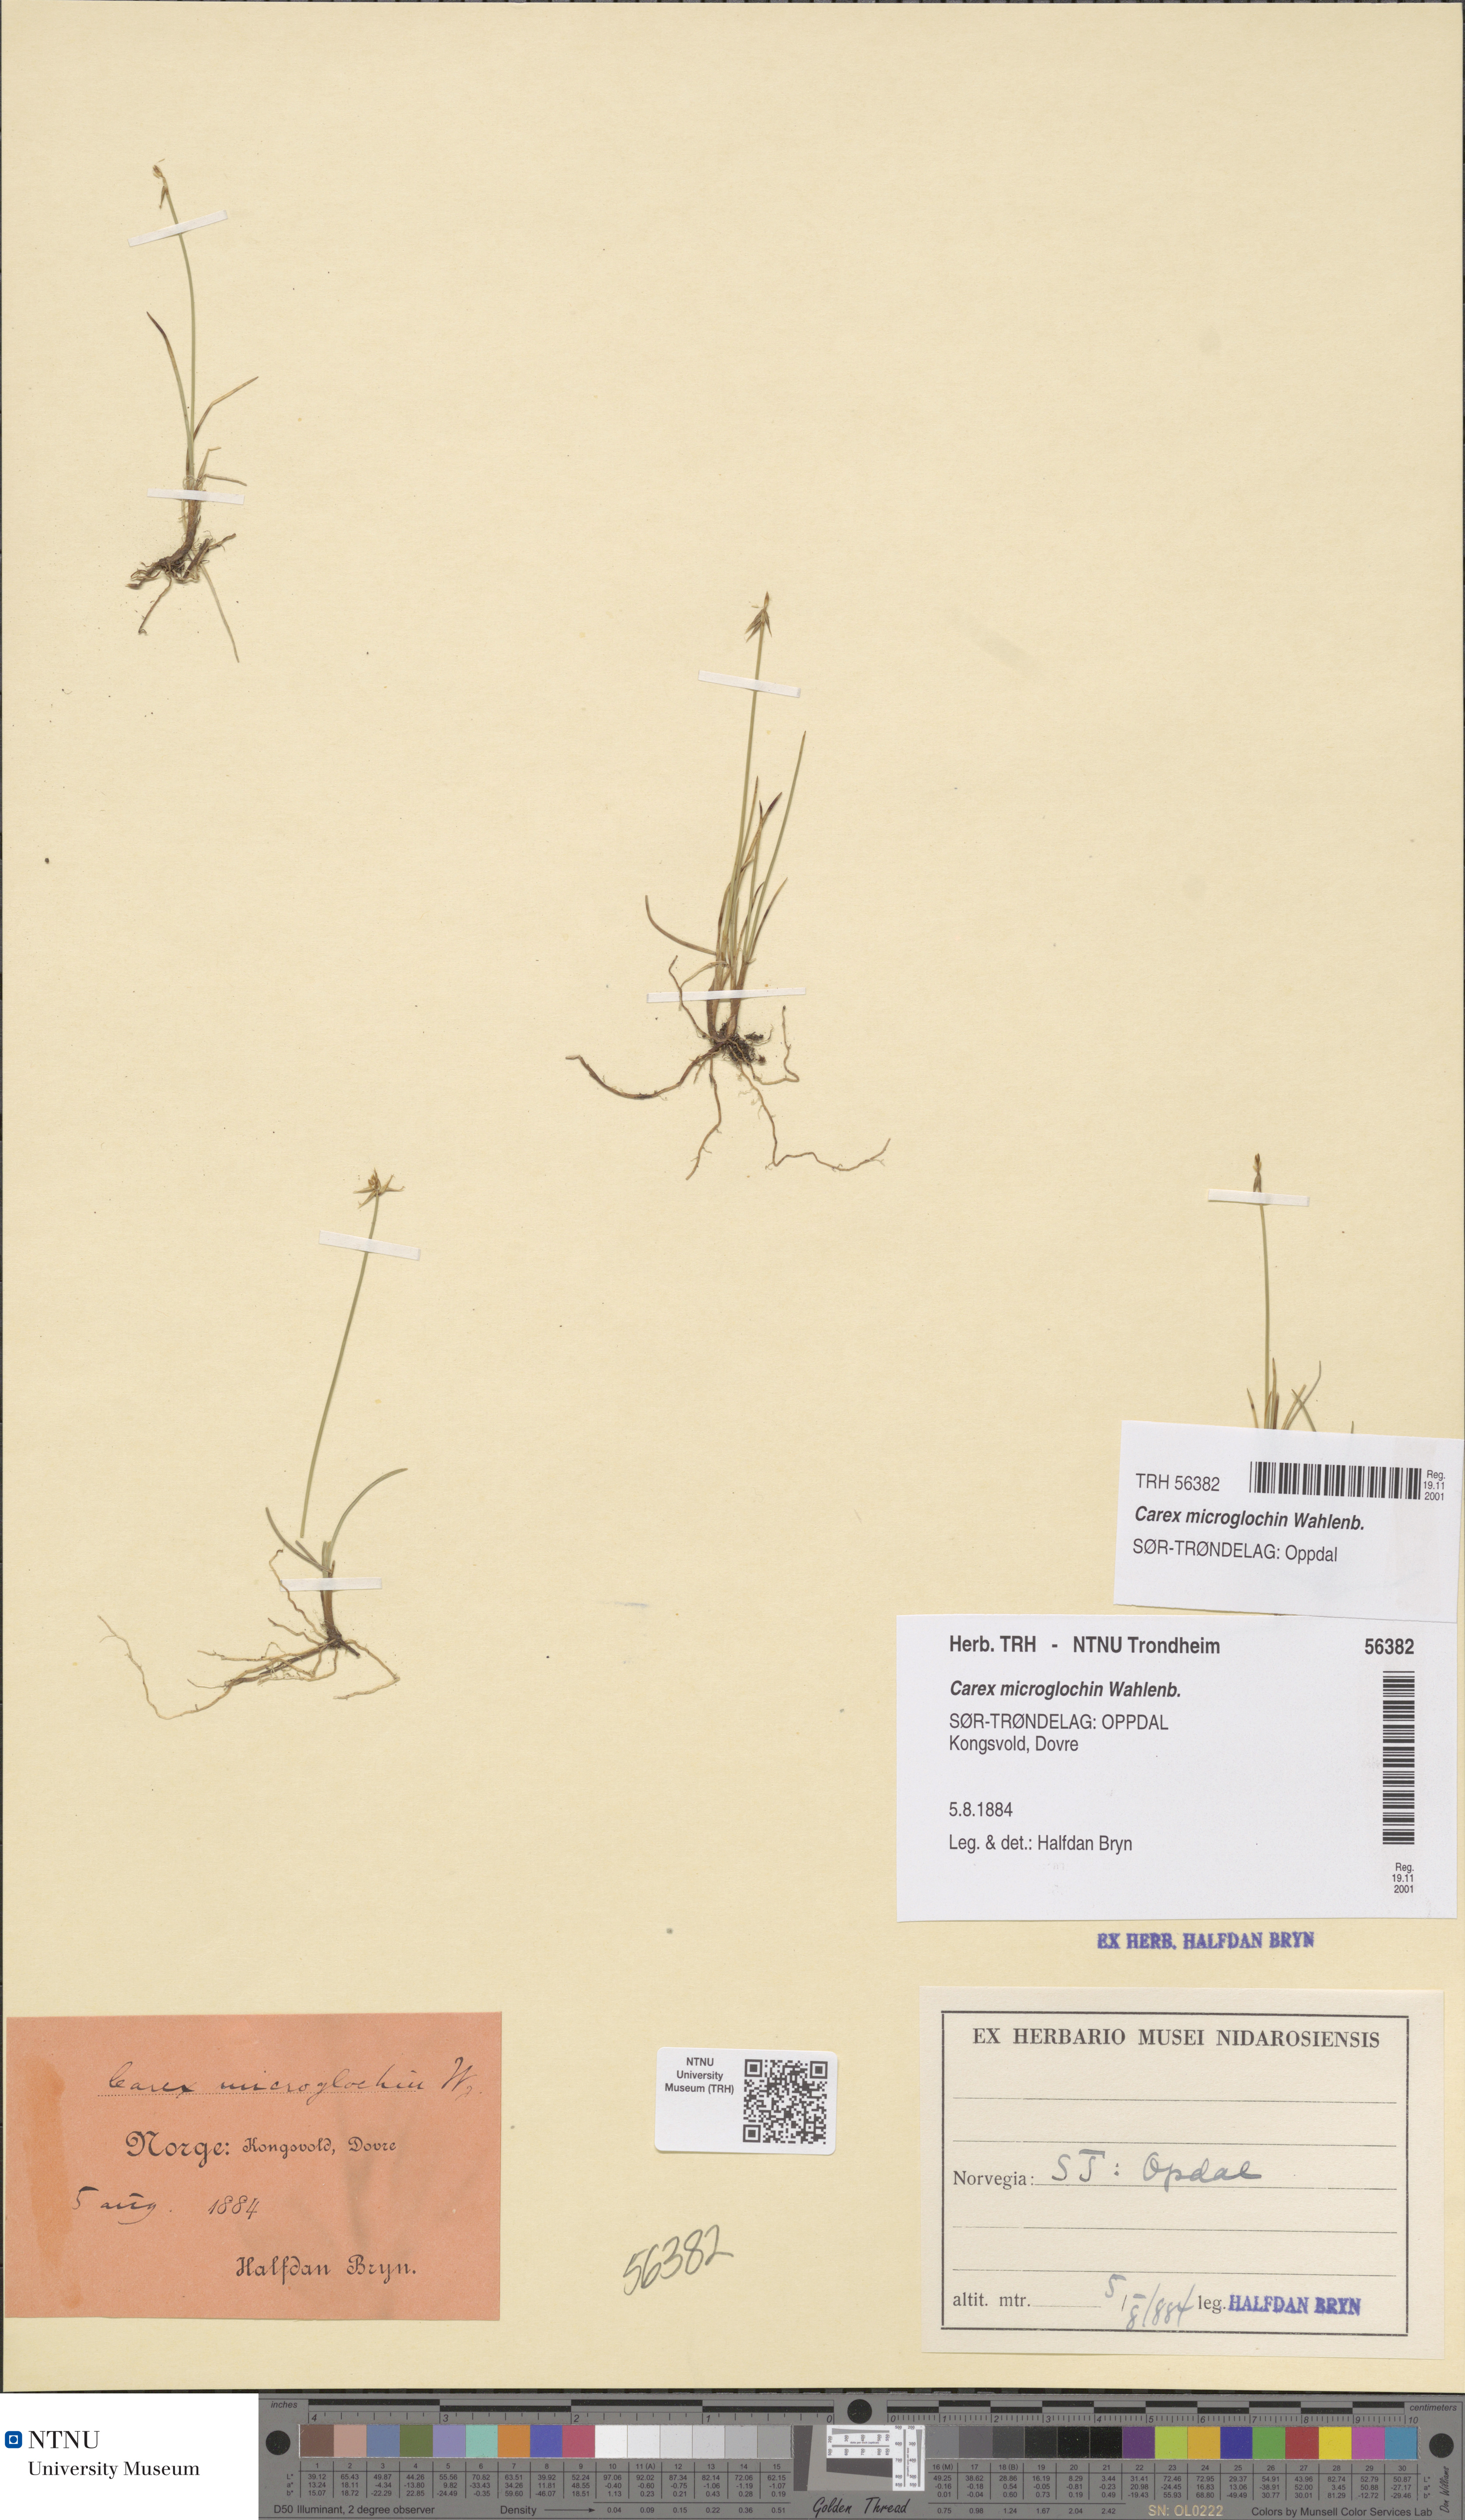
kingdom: Plantae
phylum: Tracheophyta
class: Liliopsida
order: Poales
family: Cyperaceae
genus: Carex
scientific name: Carex microglochin
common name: Bristle sedge
